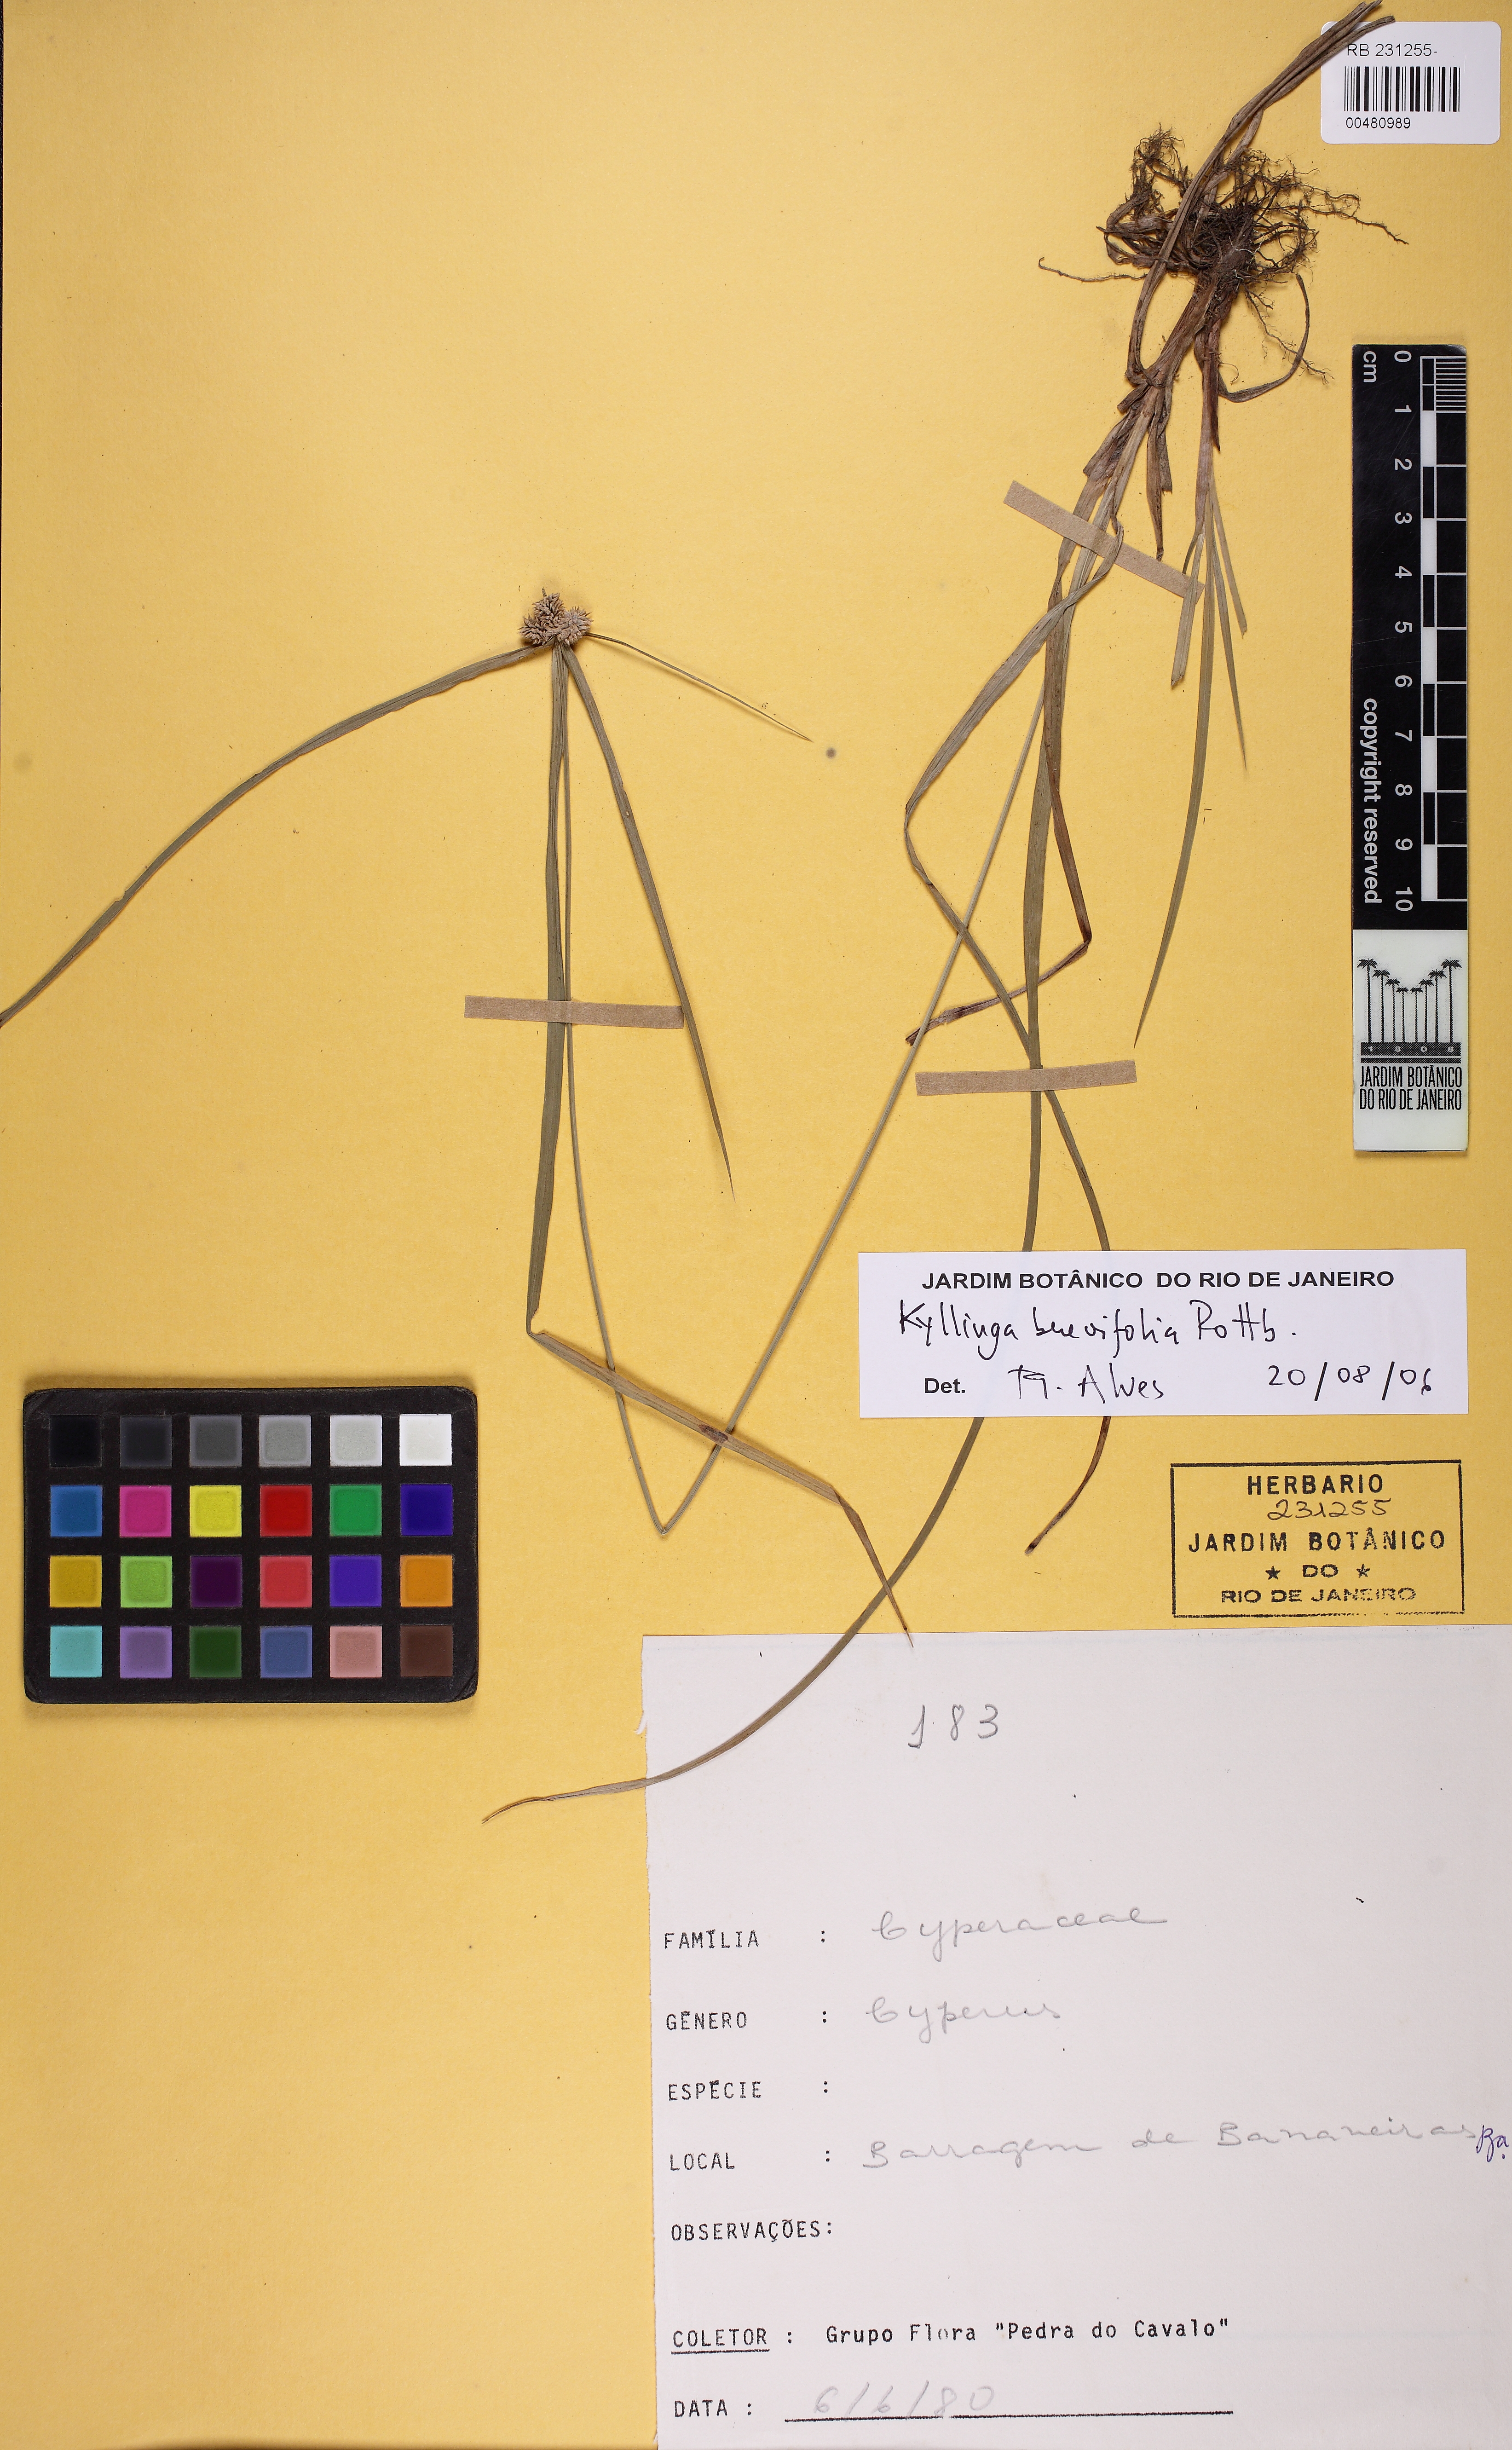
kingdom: Plantae
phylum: Tracheophyta
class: Liliopsida
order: Poales
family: Cyperaceae
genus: Cyperus
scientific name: Cyperus sesquiflorus
